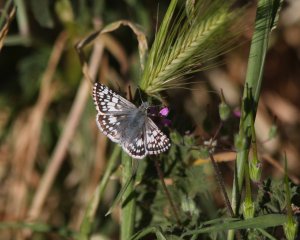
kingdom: Animalia
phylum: Arthropoda
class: Insecta
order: Lepidoptera
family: Hesperiidae
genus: Pyrgus
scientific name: Pyrgus communis
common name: White Checkered-Skipper
